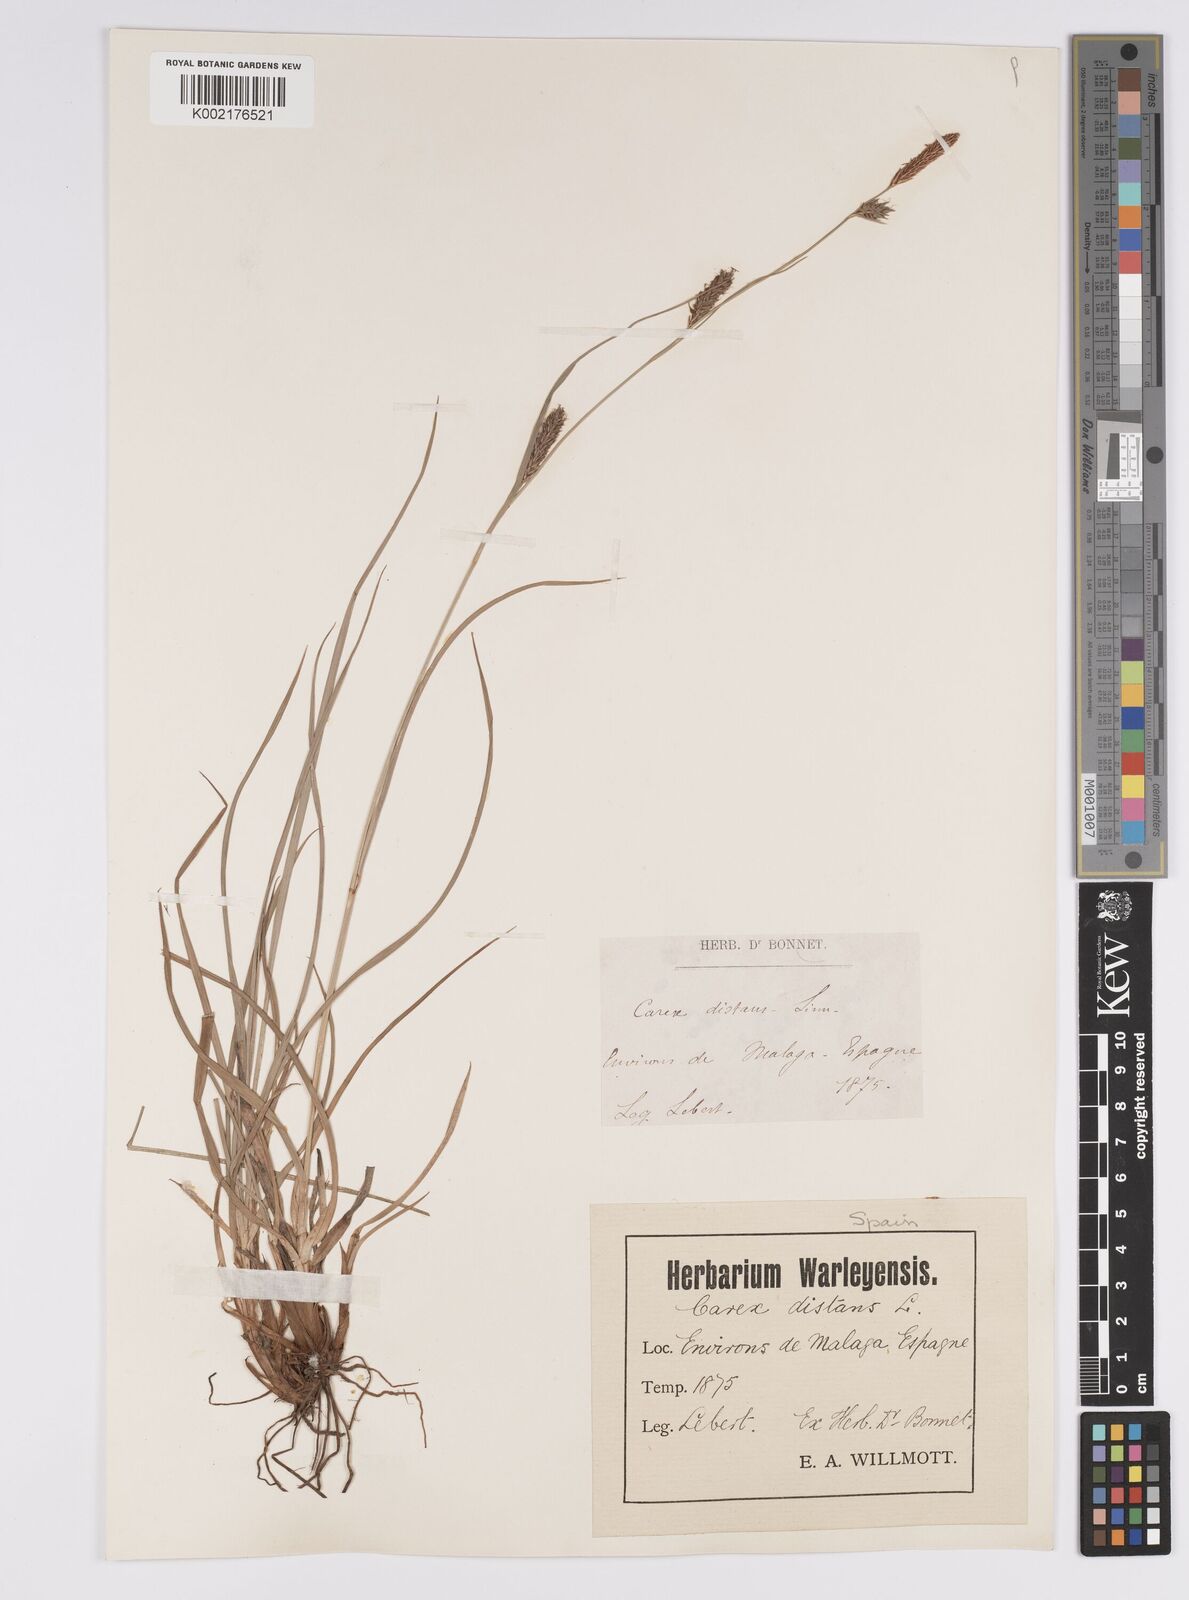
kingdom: Plantae
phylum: Tracheophyta
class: Liliopsida
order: Poales
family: Cyperaceae
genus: Carex
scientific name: Carex distans
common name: Distant sedge
